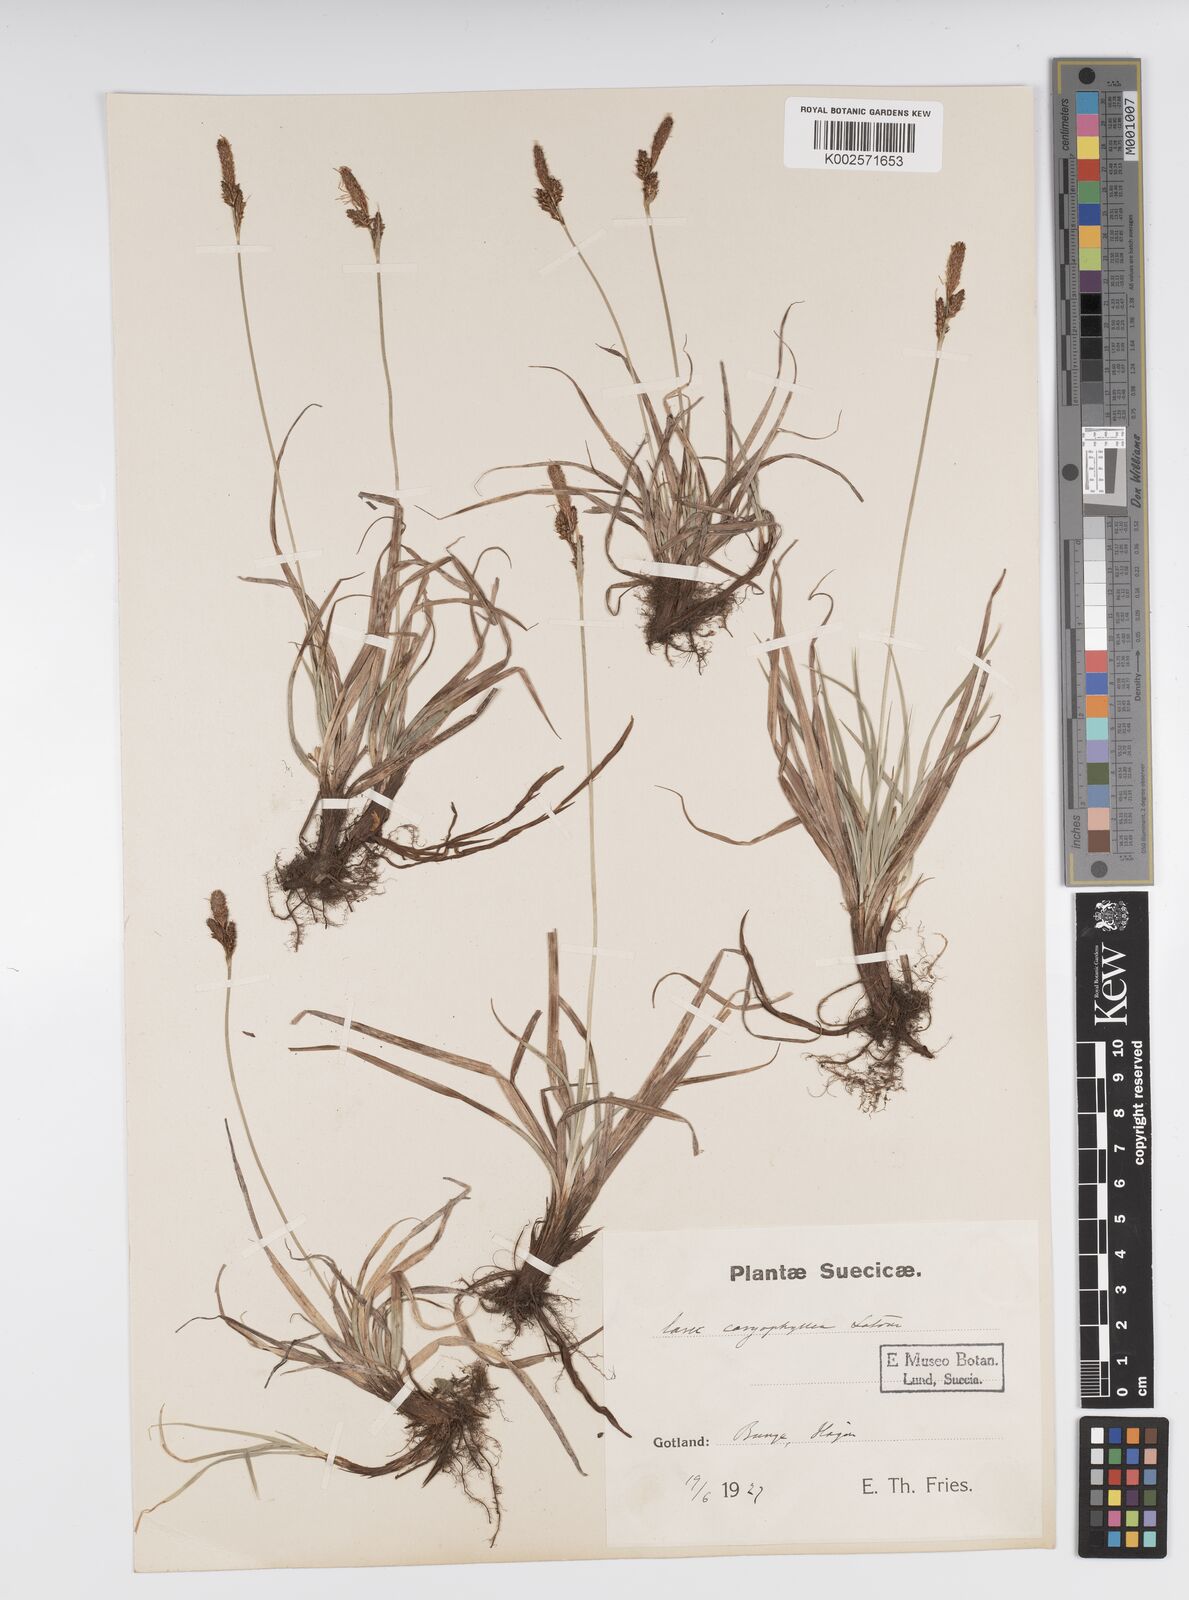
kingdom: Plantae
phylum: Tracheophyta
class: Liliopsida
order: Poales
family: Cyperaceae
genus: Carex
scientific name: Carex caryophyllea
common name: Spring sedge
